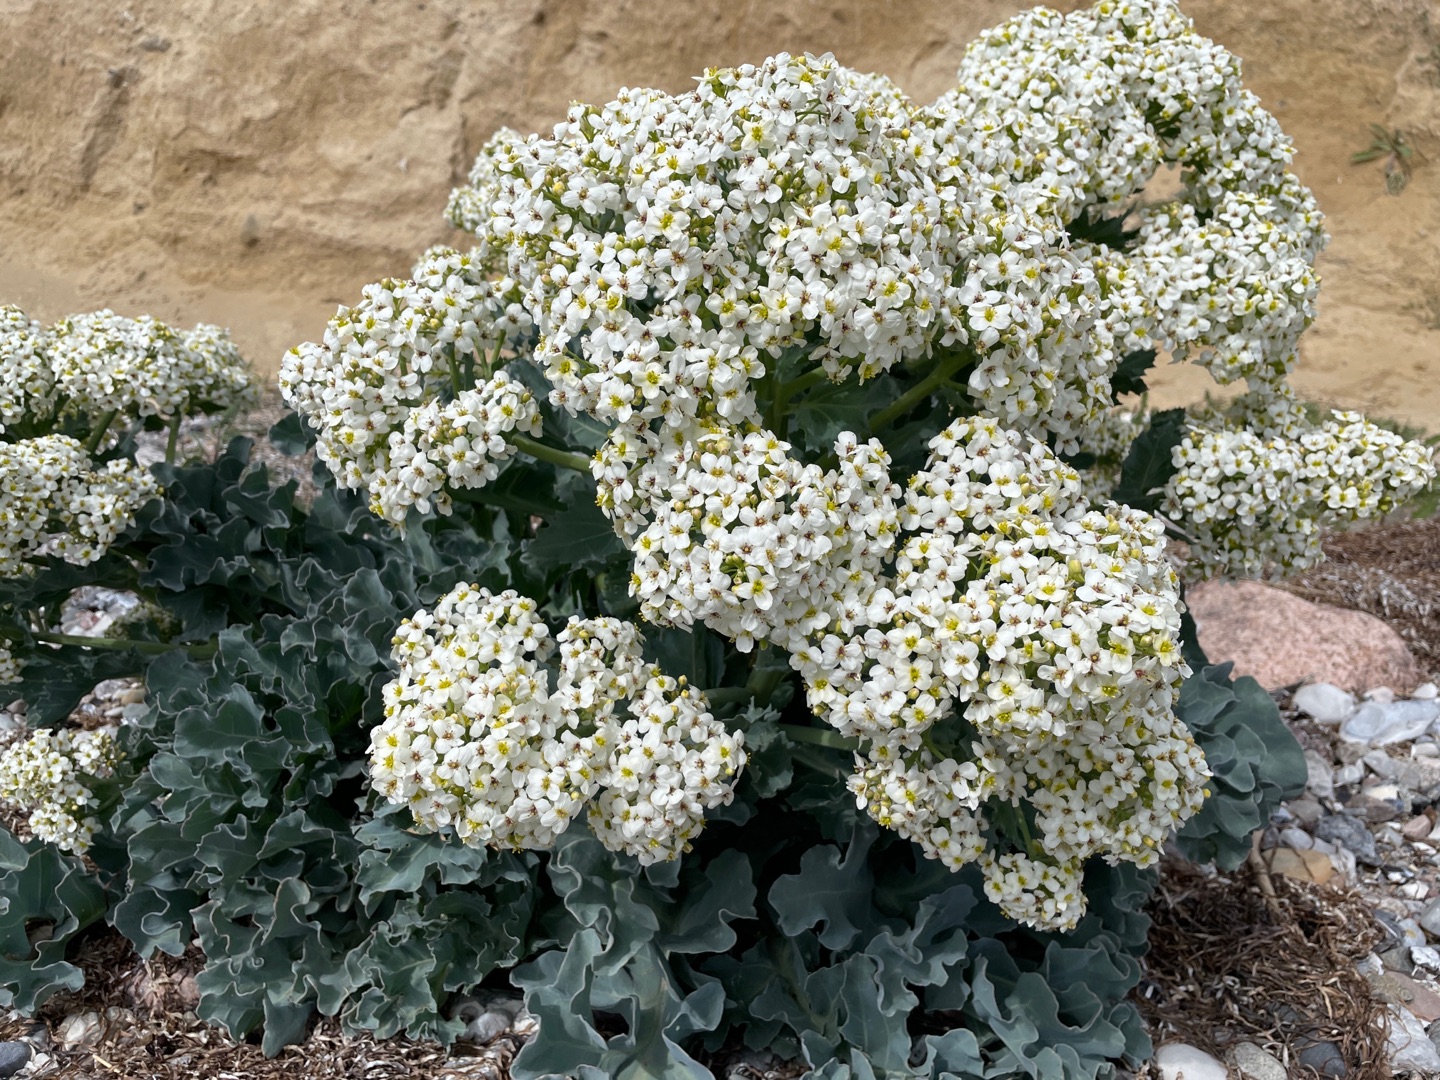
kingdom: Plantae
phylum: Tracheophyta
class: Magnoliopsida
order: Brassicales
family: Brassicaceae
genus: Crambe
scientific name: Crambe maritima
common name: Strandkål
